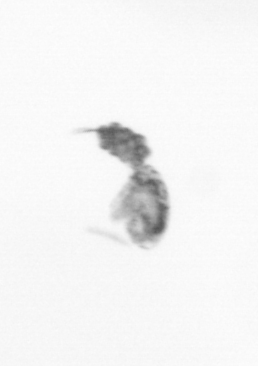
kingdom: Animalia
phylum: Arthropoda
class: Copepoda
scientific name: Copepoda
